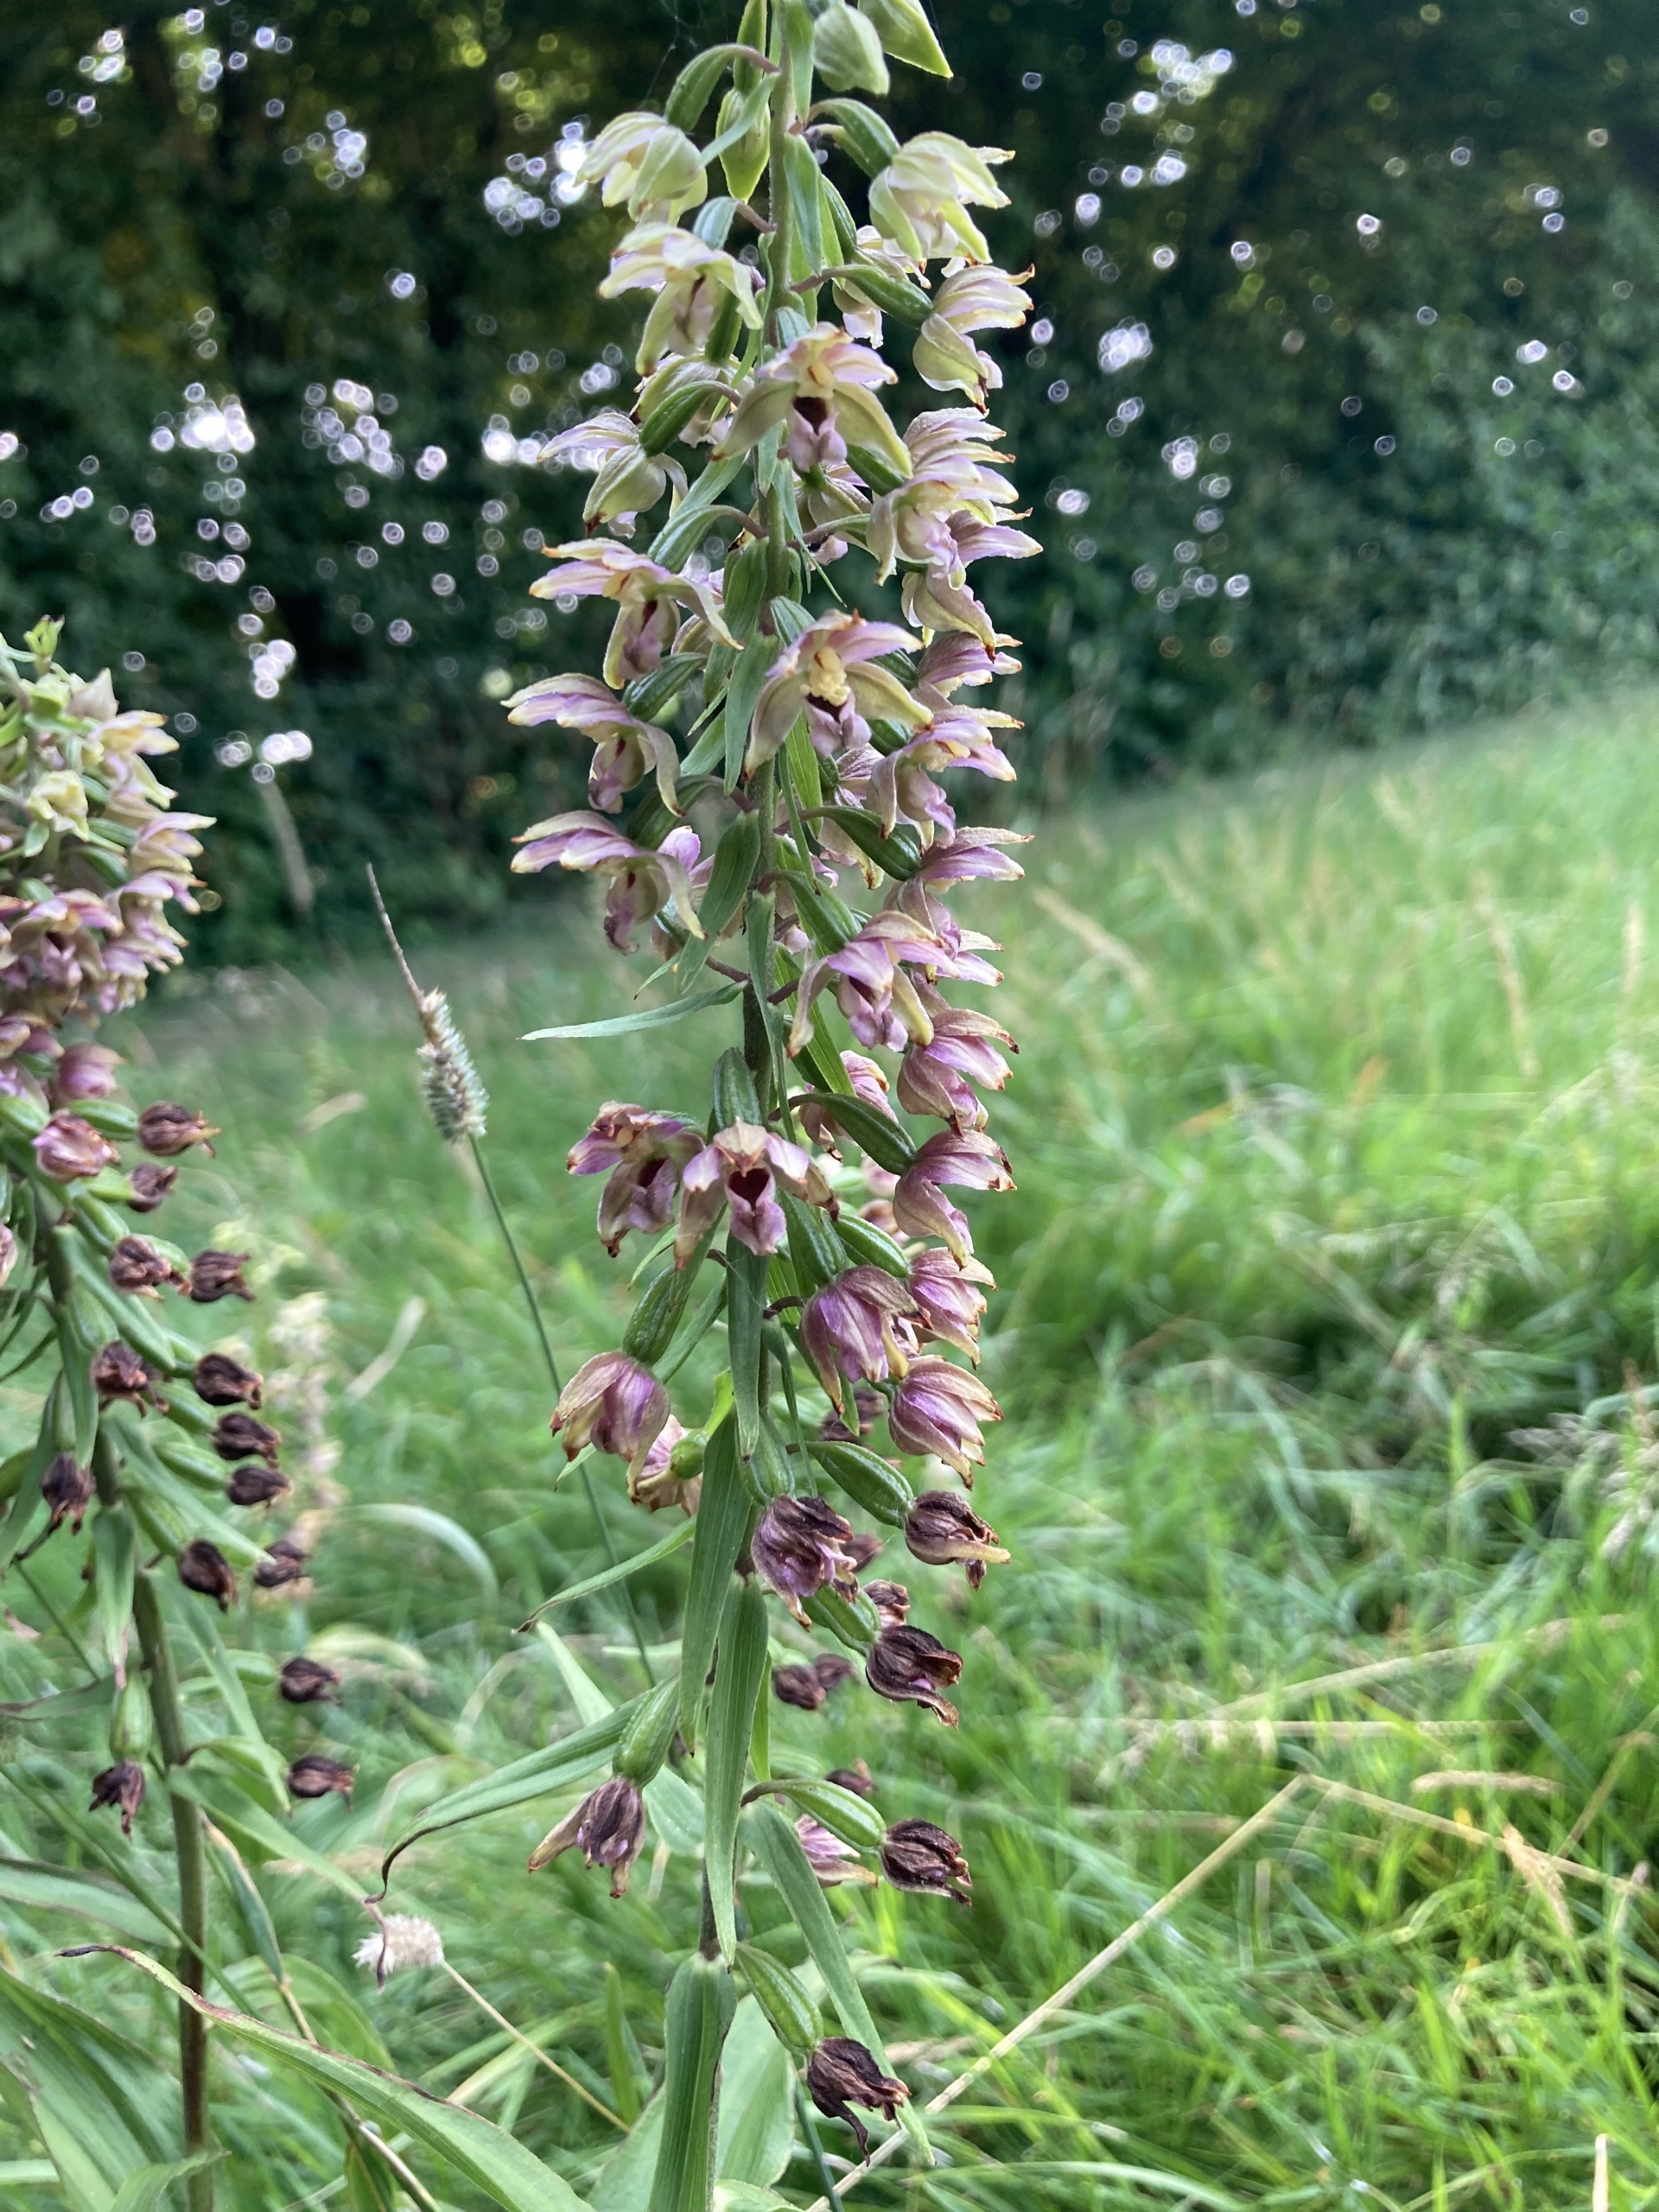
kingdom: Plantae
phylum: Tracheophyta
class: Liliopsida
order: Asparagales
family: Orchidaceae
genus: Epipactis
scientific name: Epipactis helleborine
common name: Skov-hullæbe
